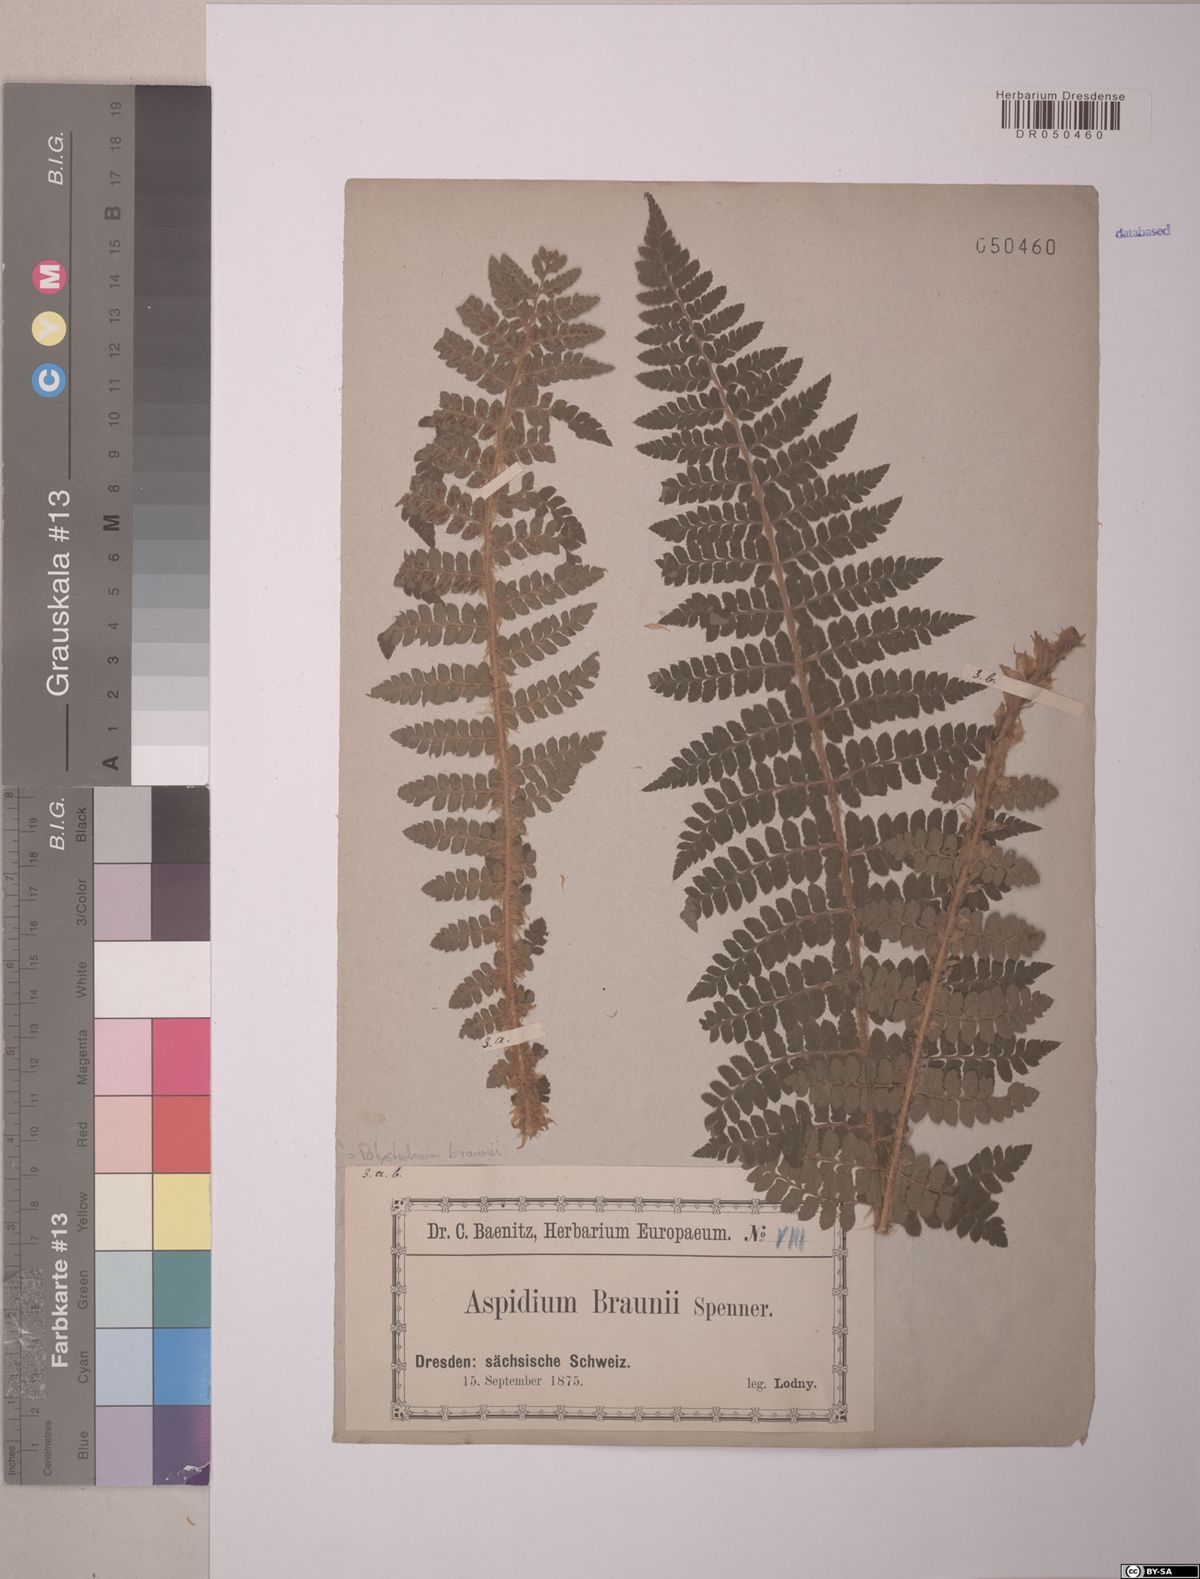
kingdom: Plantae
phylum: Tracheophyta
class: Polypodiopsida
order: Polypodiales
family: Dryopteridaceae
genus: Polystichum
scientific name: Polystichum braunii
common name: Braun's holly fern
